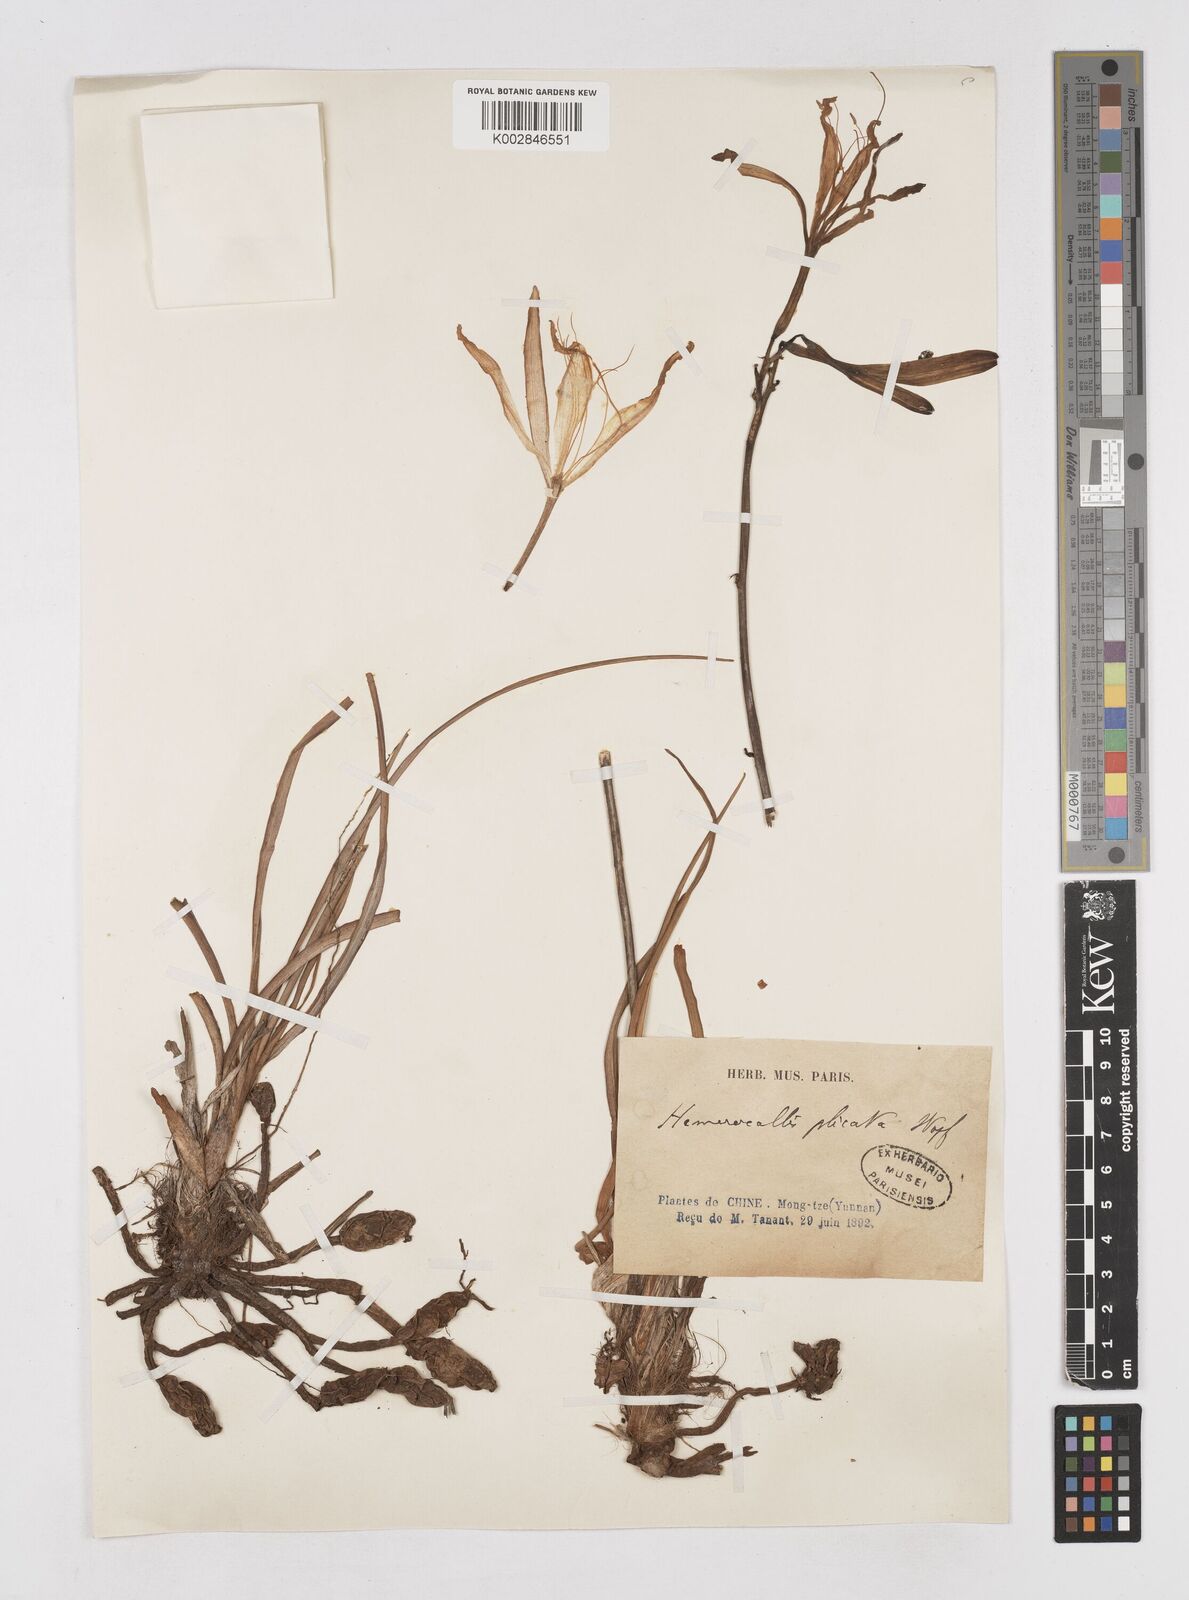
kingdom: Plantae
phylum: Tracheophyta
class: Liliopsida
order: Asparagales
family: Asphodelaceae
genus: Hemerocallis
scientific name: Hemerocallis plicata
